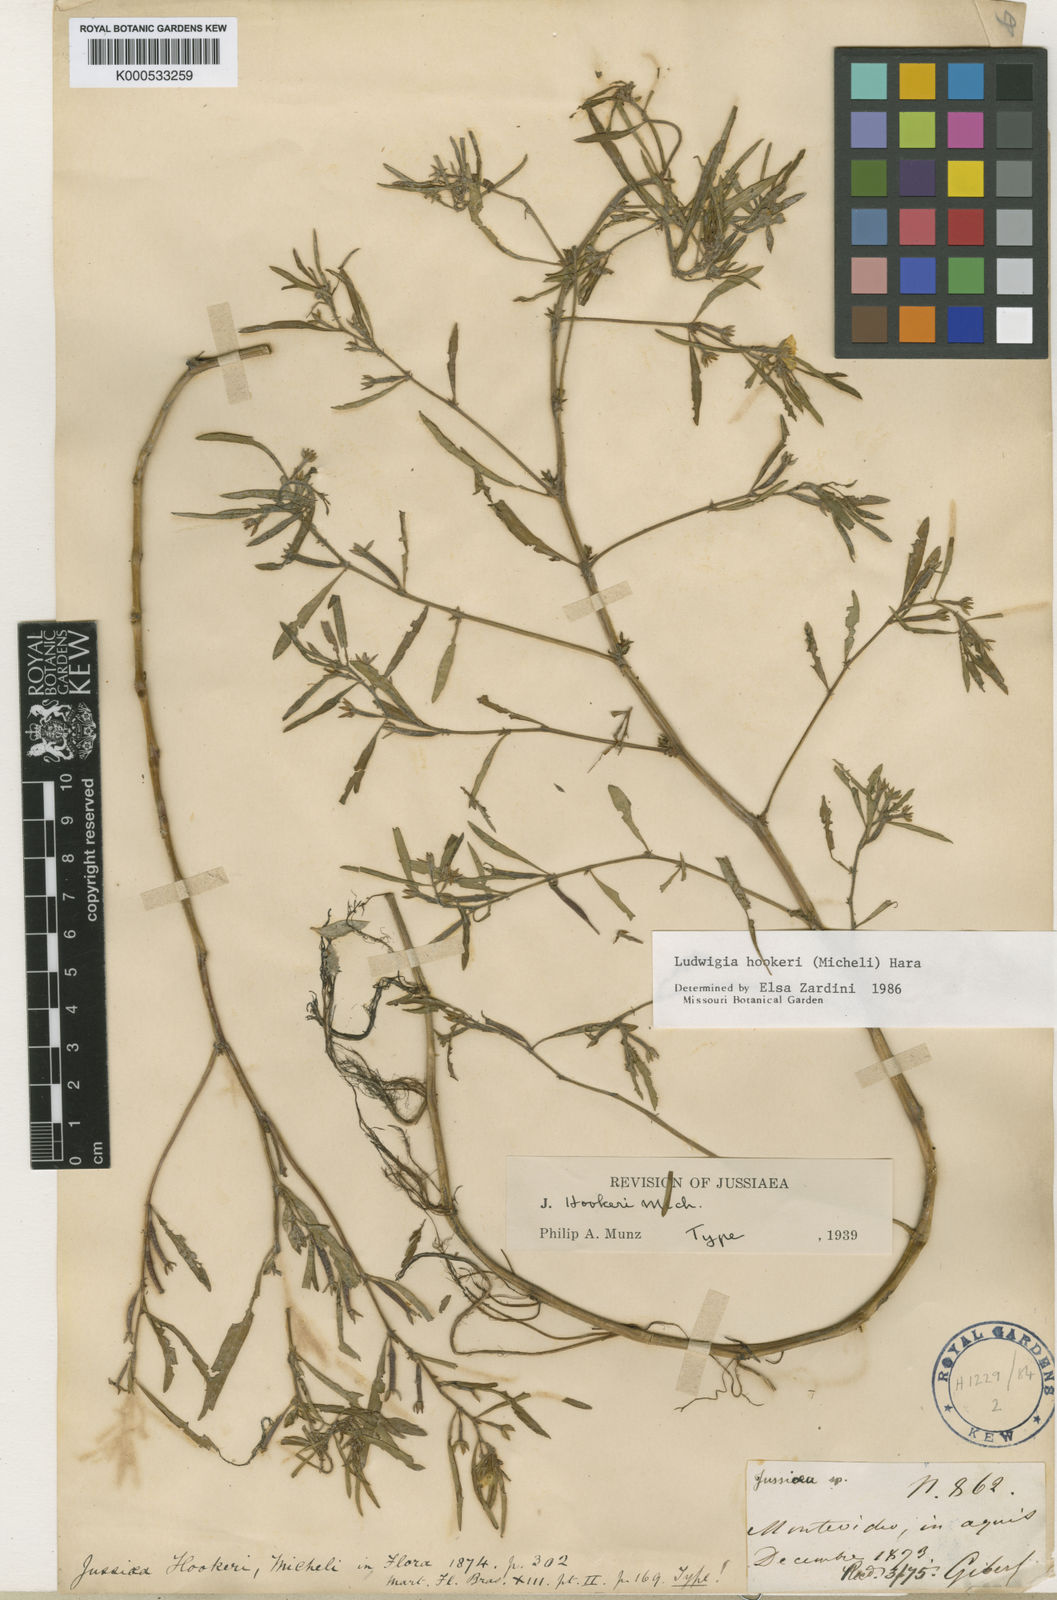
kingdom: Plantae
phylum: Tracheophyta
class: Magnoliopsida
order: Myrtales
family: Onagraceae
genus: Ludwigia
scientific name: Ludwigia hookeri
